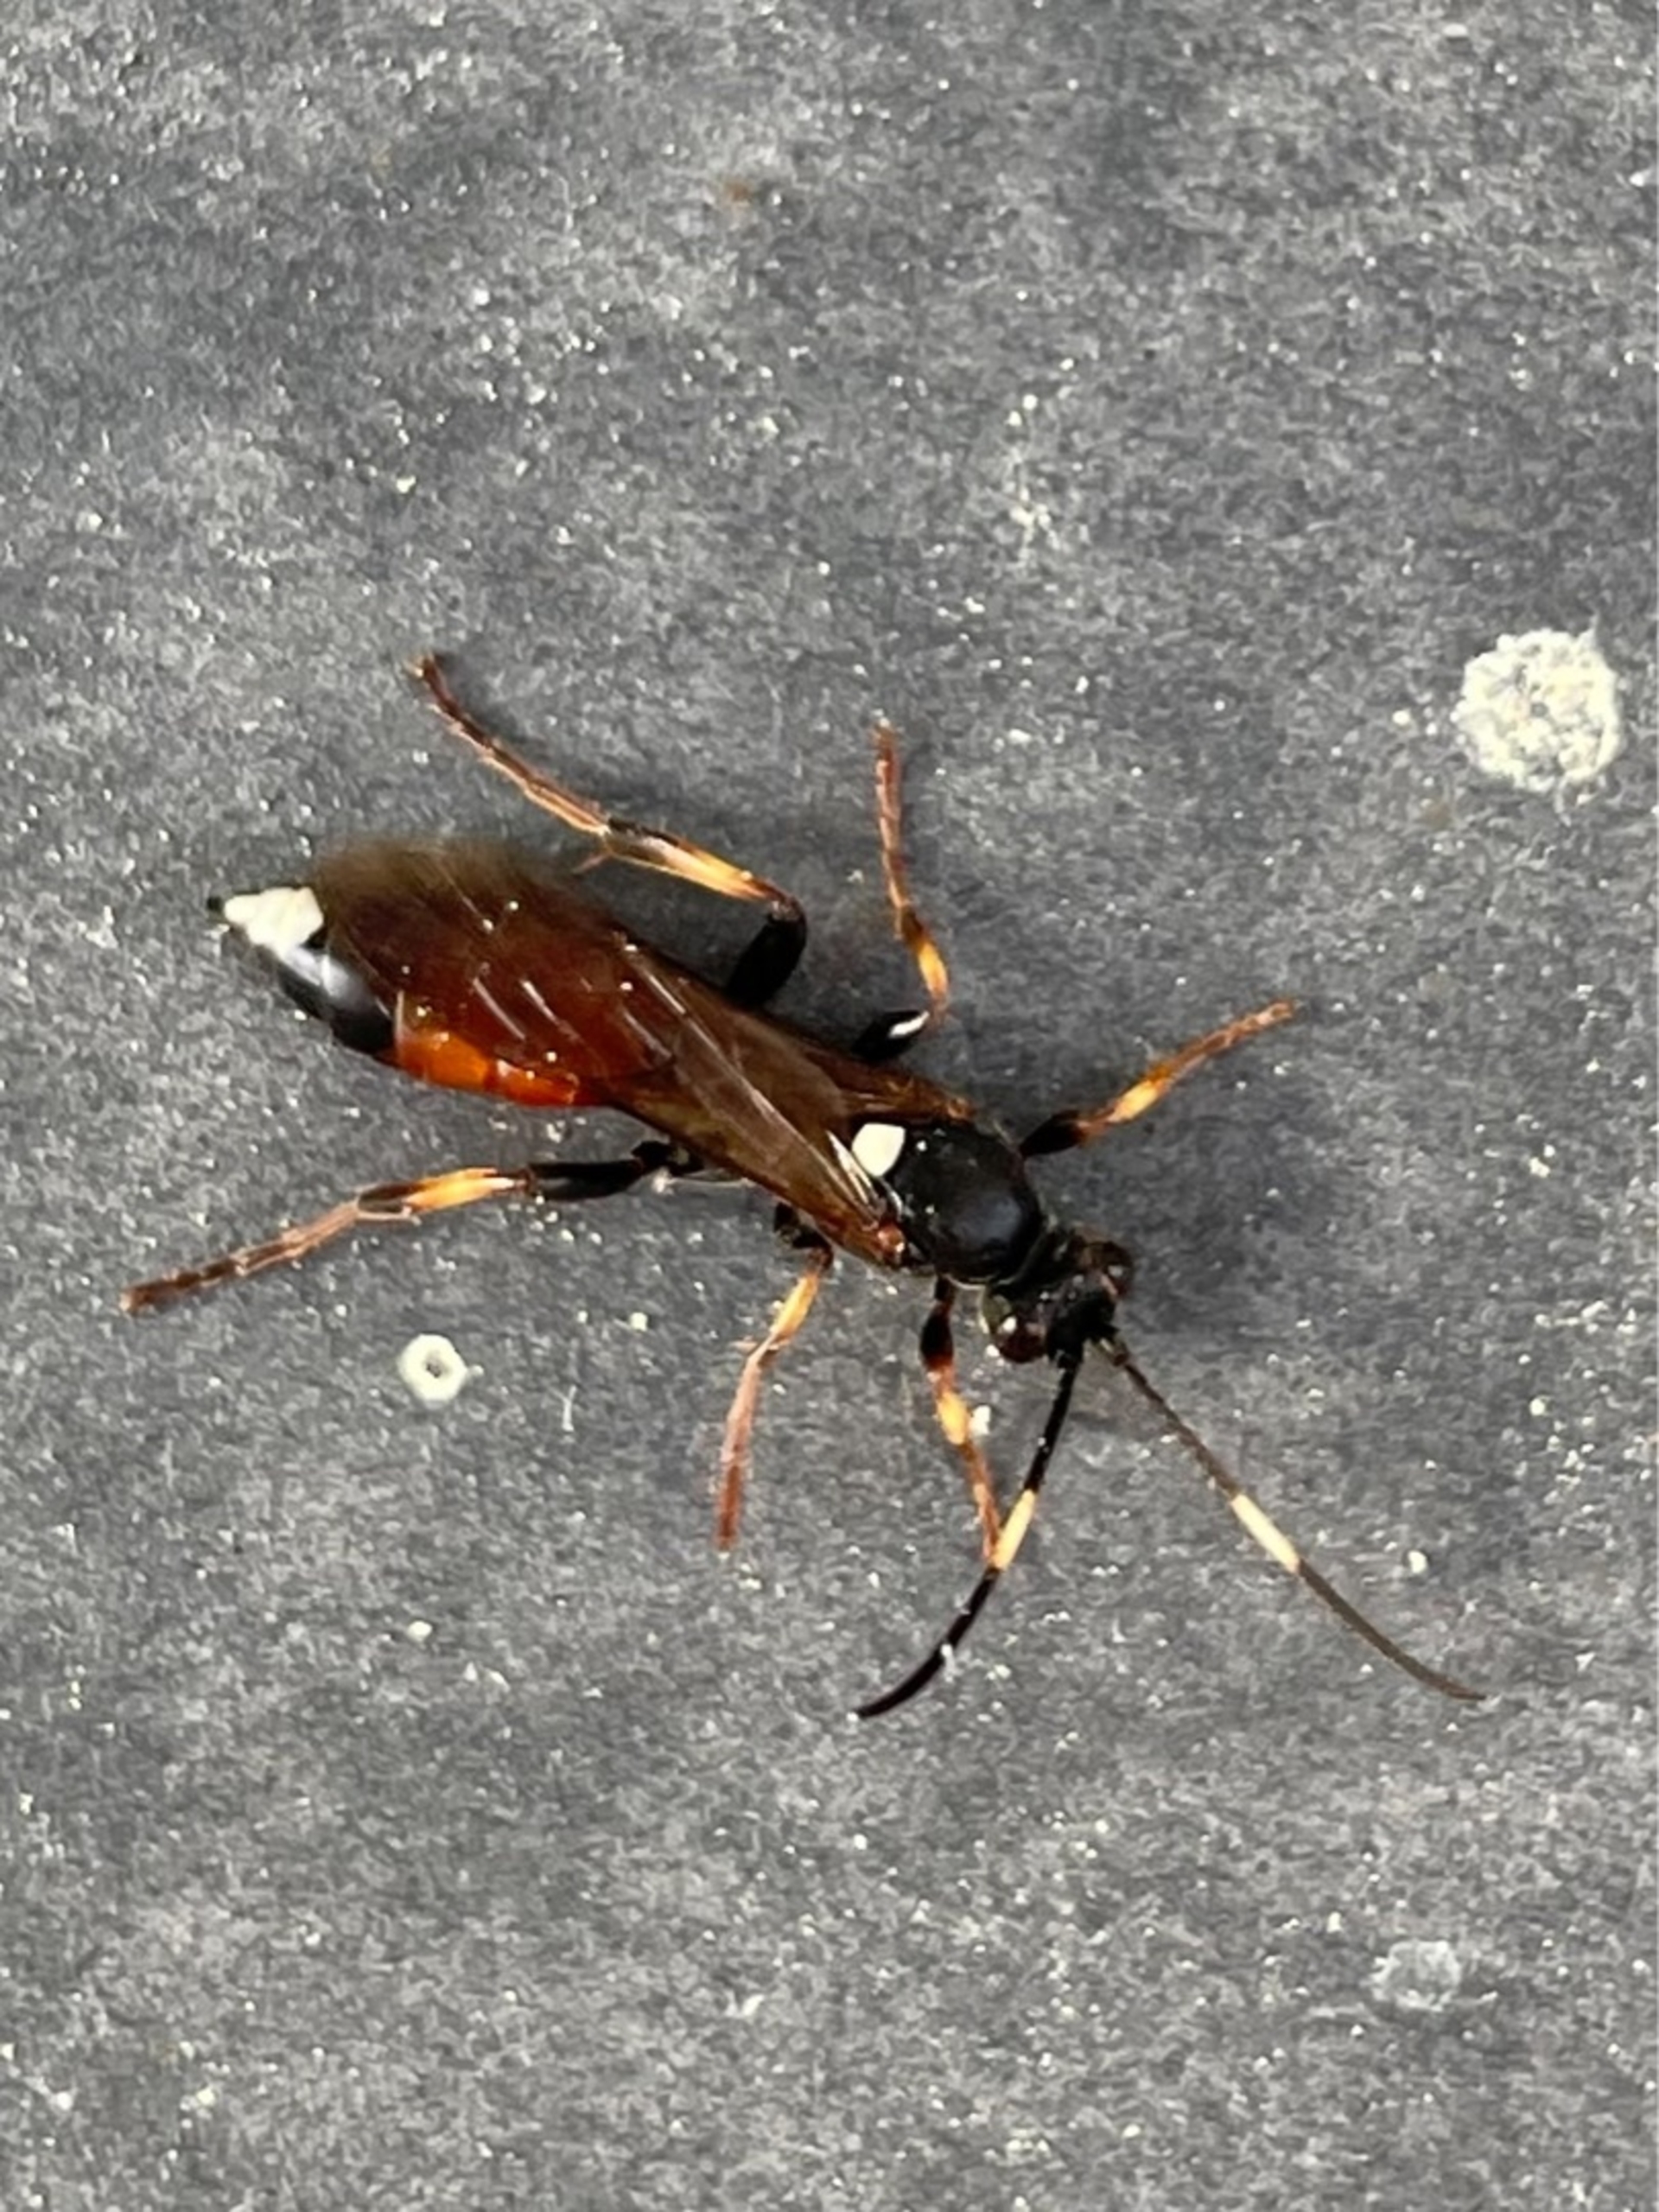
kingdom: Animalia
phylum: Arthropoda
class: Insecta
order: Hymenoptera
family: Ichneumonidae
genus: Ichneumon
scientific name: Ichneumon
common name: Ichneumon
